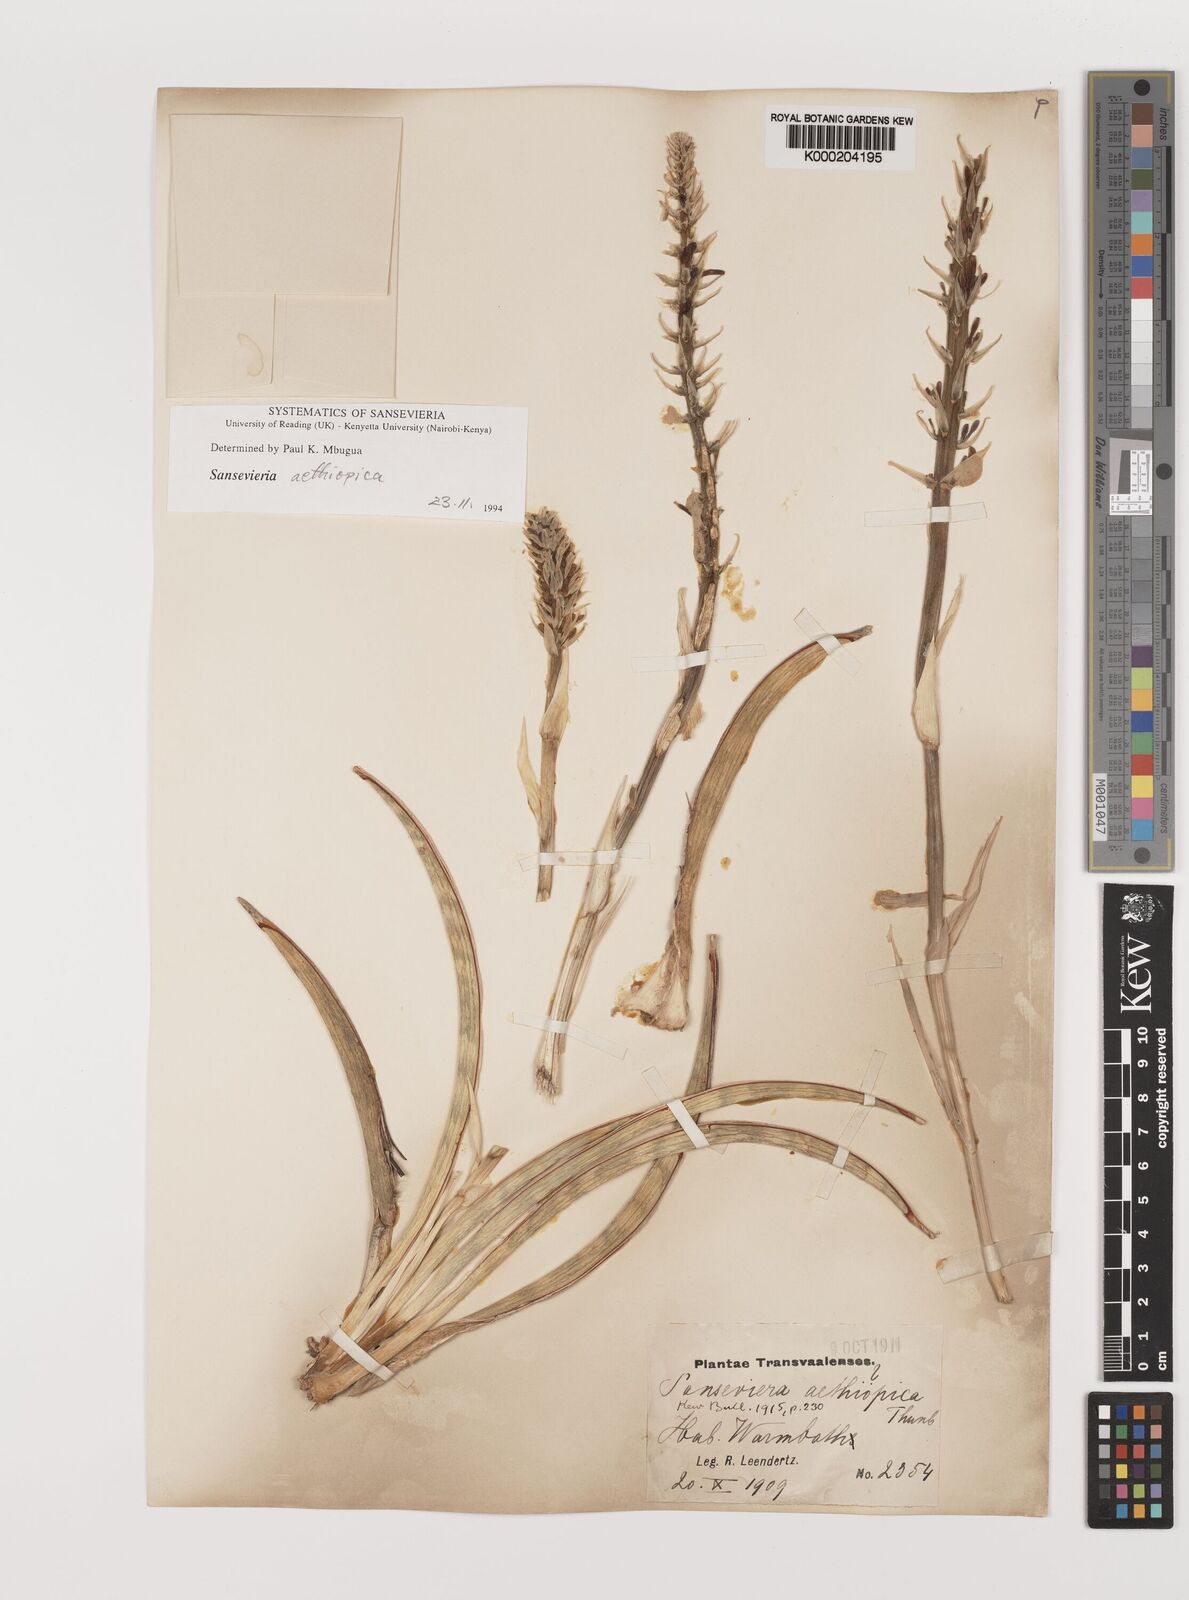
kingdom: Plantae
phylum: Tracheophyta
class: Liliopsida
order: Asparagales
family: Asparagaceae
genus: Dracaena
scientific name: Dracaena aethiopica
